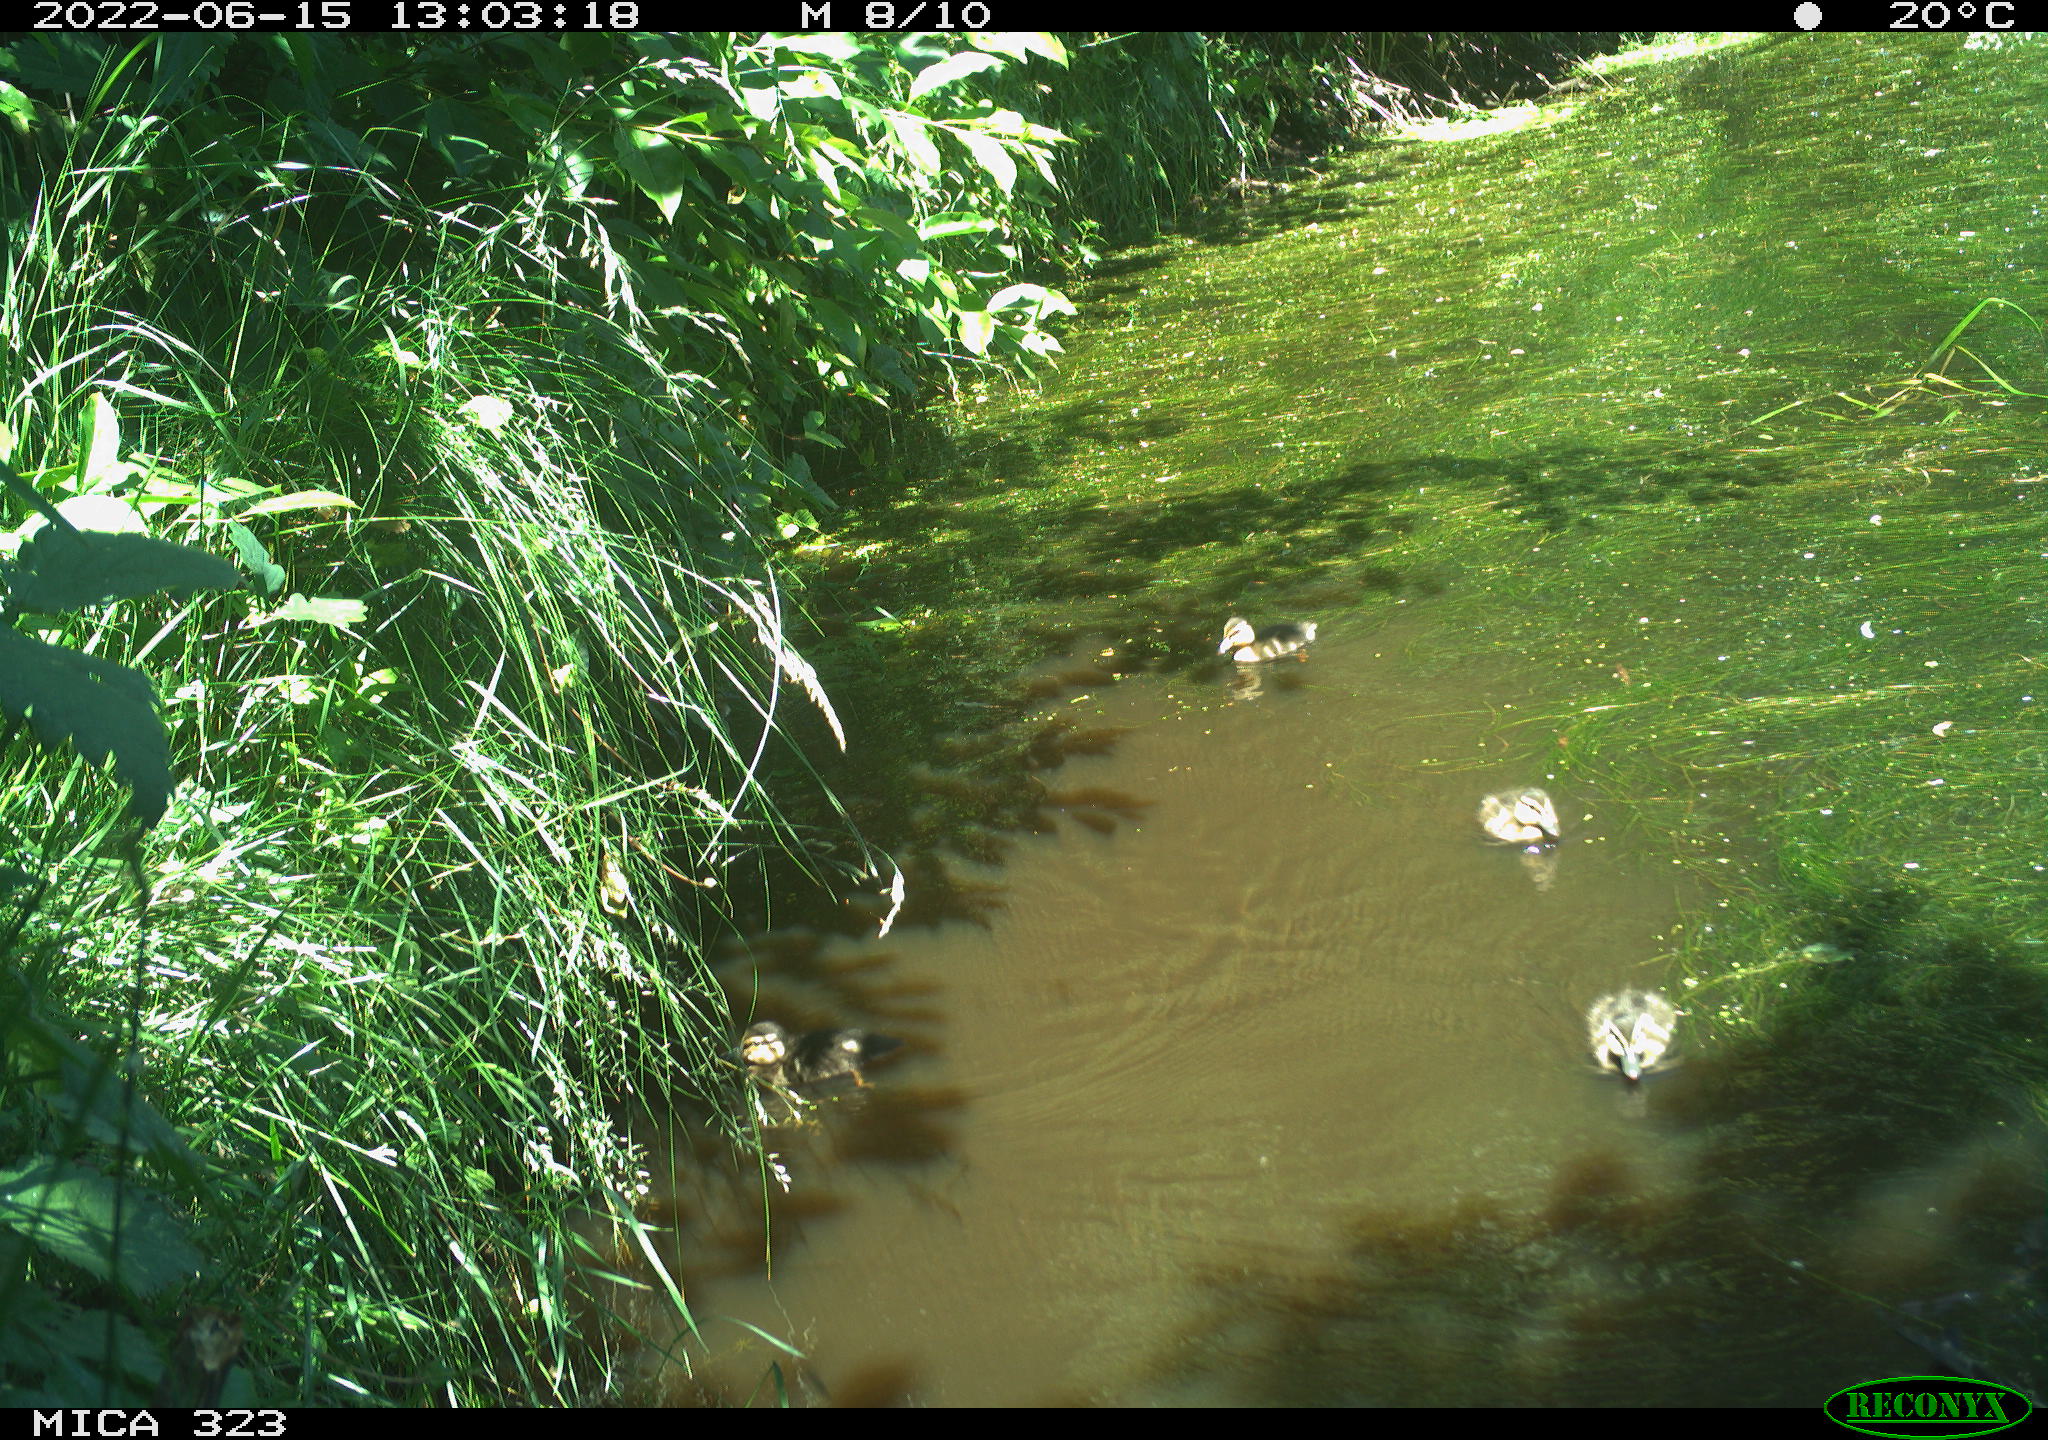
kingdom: Animalia
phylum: Chordata
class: Aves
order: Anseriformes
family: Anatidae
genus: Anas
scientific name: Anas platyrhynchos
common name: Mallard
